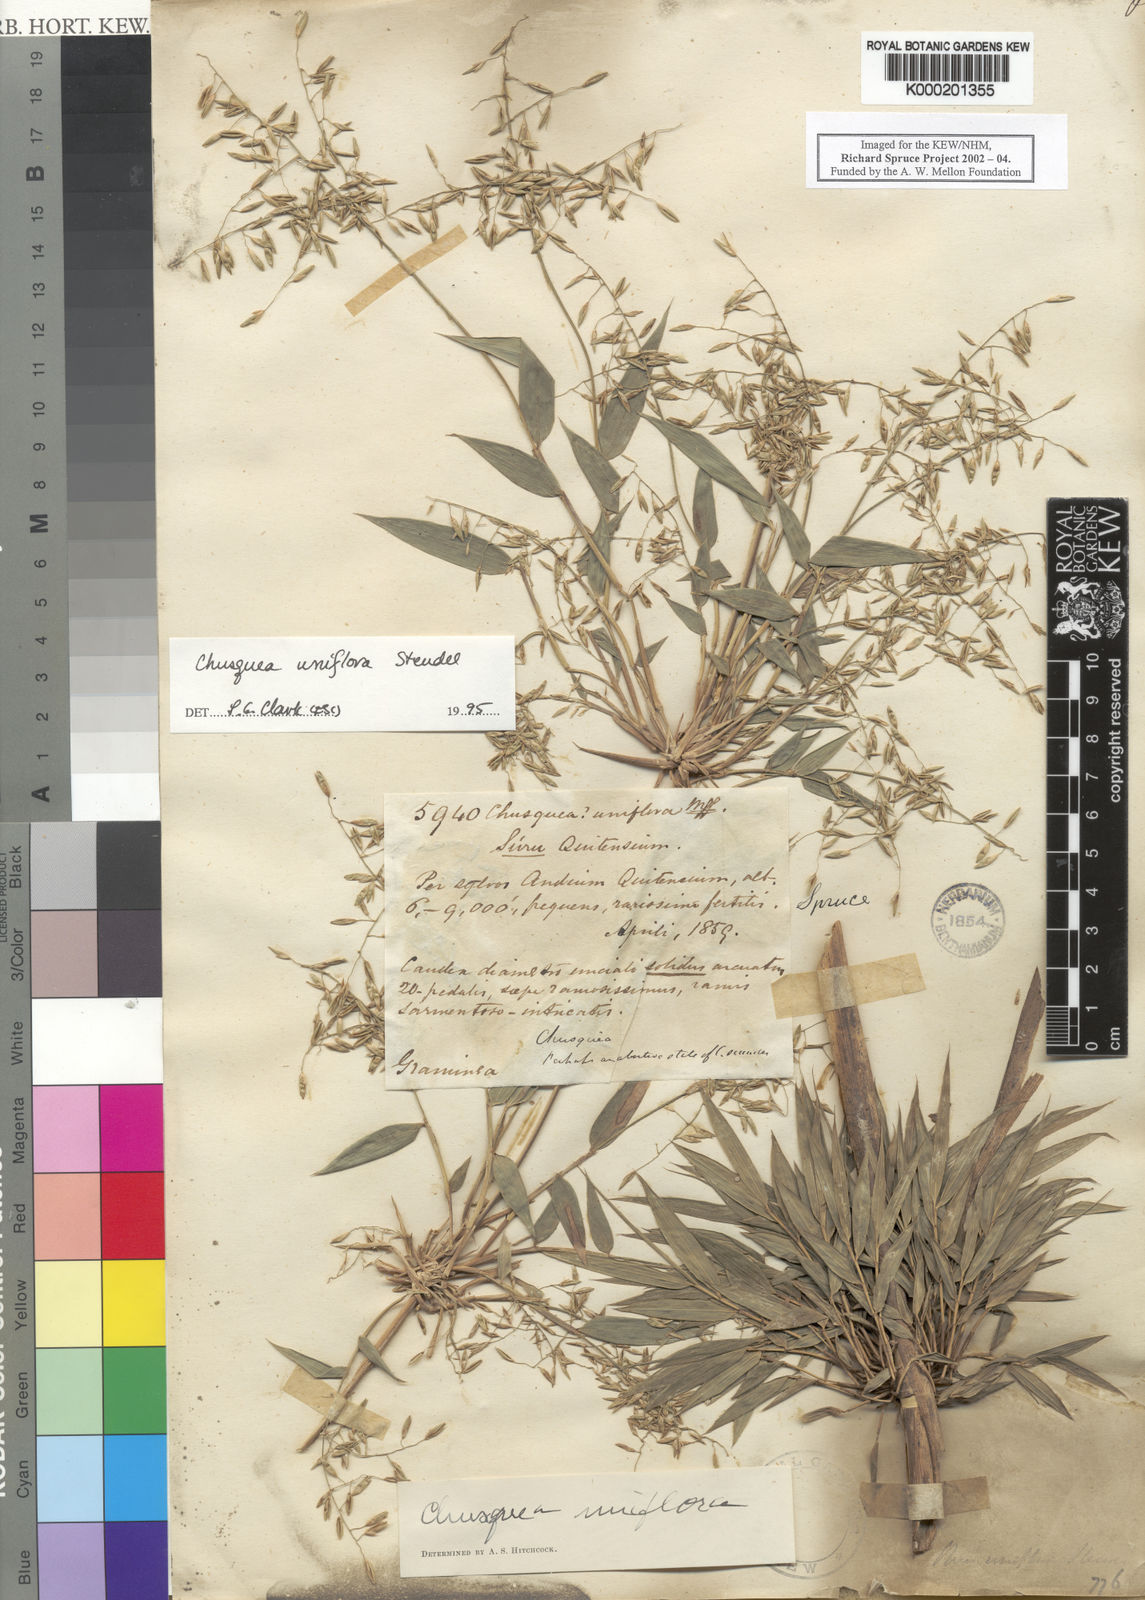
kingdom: Plantae
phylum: Tracheophyta
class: Liliopsida
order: Poales
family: Poaceae
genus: Chusquea
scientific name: Chusquea uniflora
